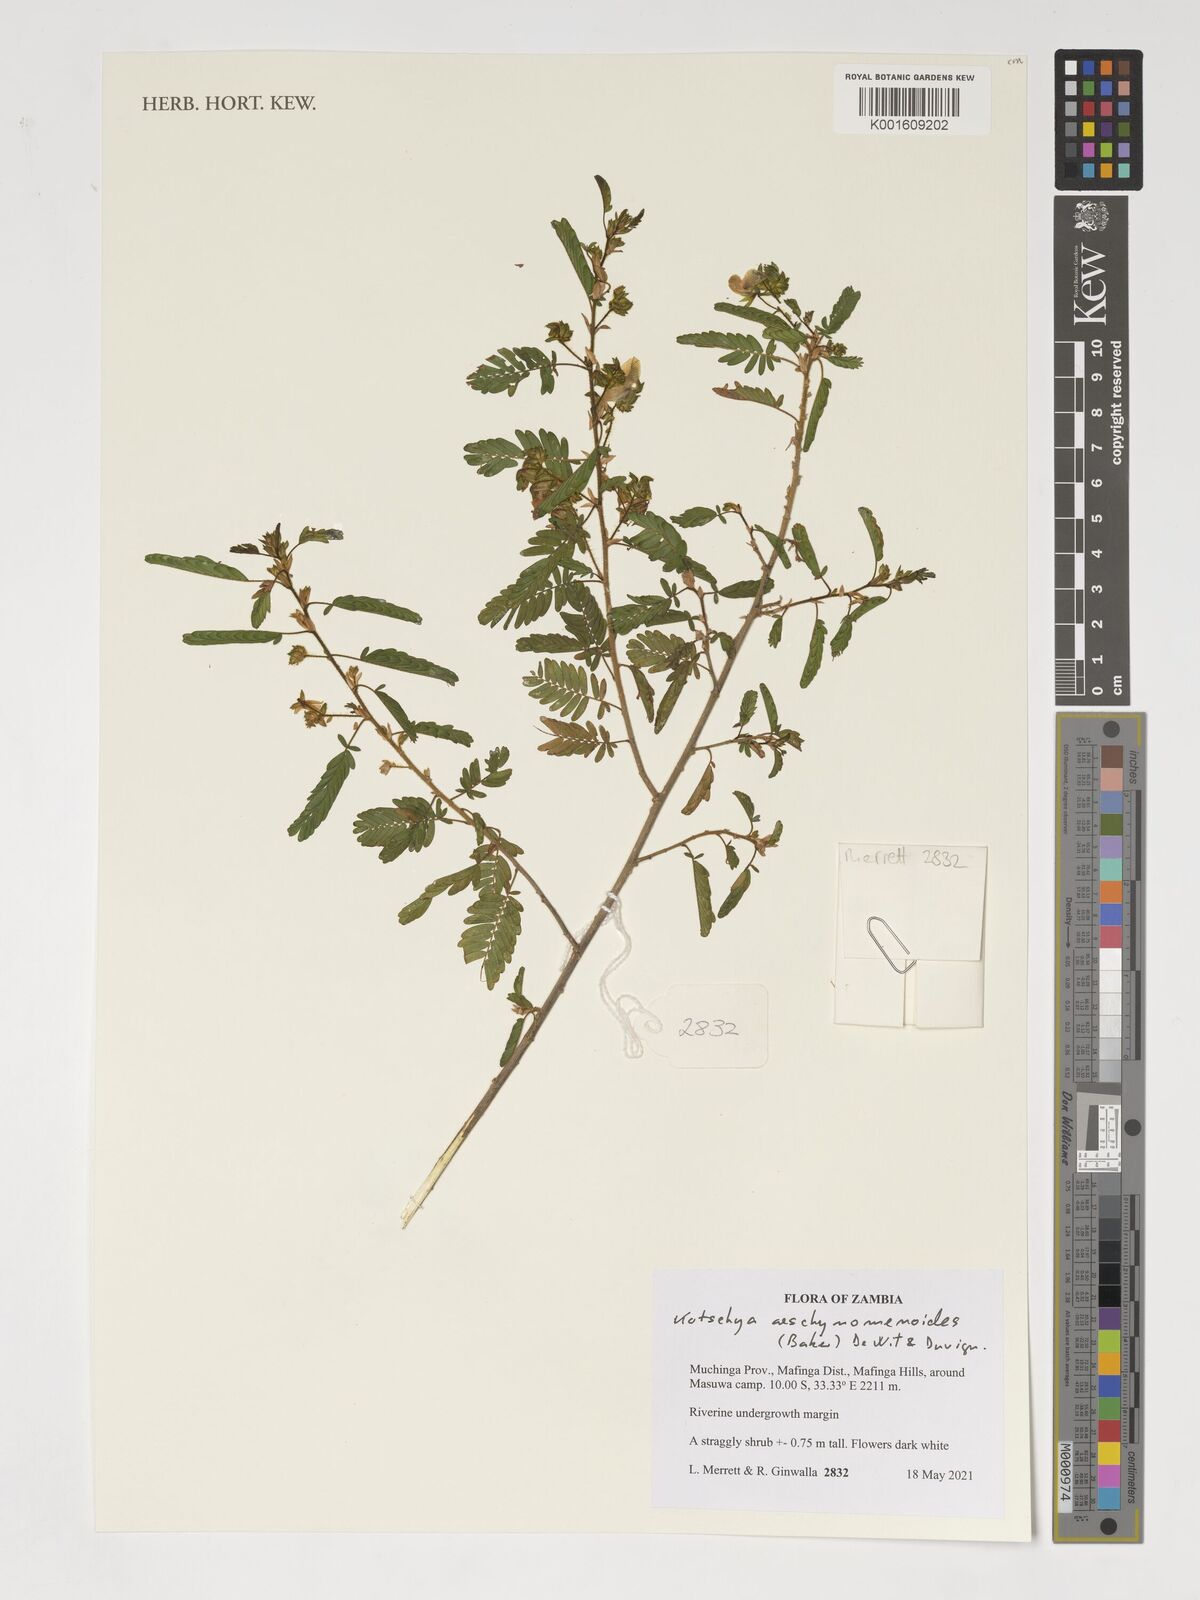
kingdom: Plantae
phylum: Tracheophyta
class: Magnoliopsida
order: Fabales
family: Fabaceae
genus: Kotschya
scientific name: Kotschya aeschynomenoides
